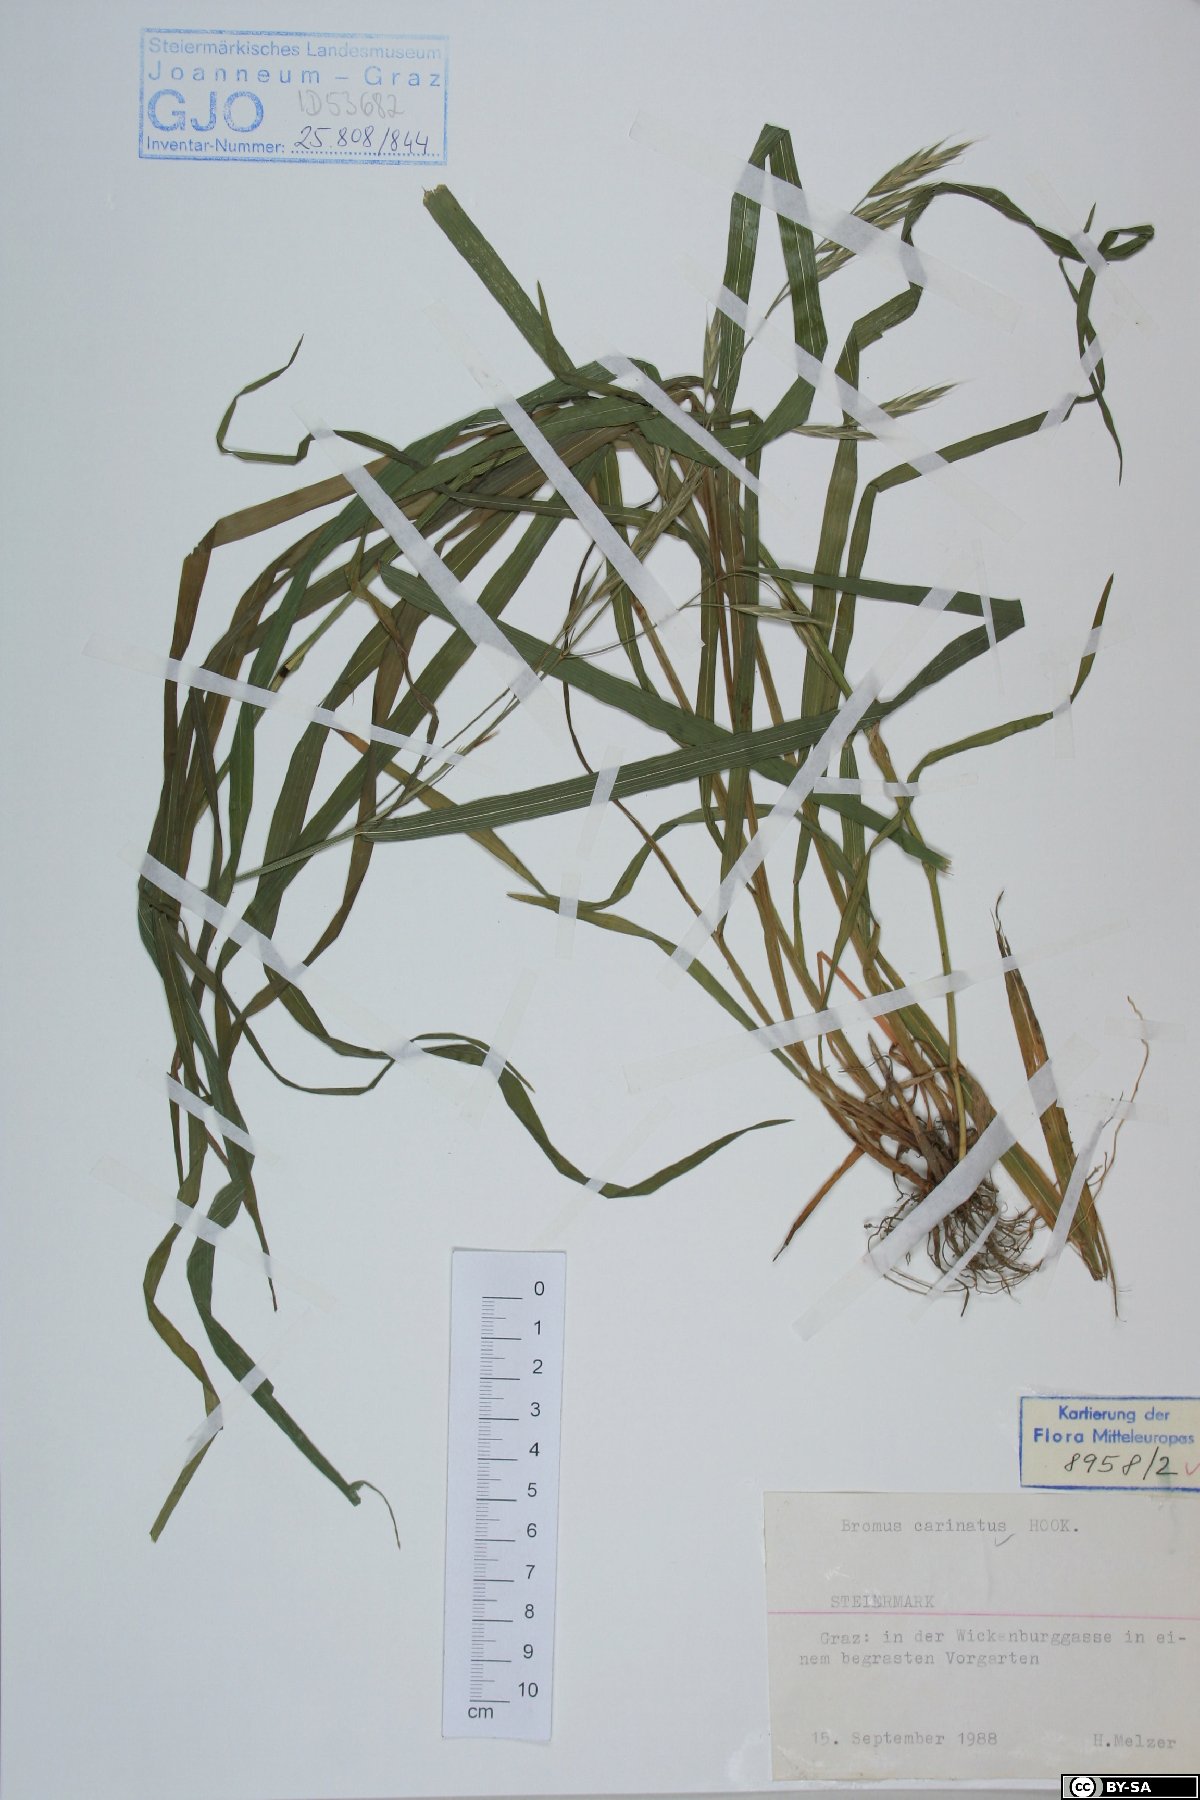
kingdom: Plantae
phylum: Tracheophyta
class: Liliopsida
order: Poales
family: Poaceae
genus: Bromus
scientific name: Bromus carinatus
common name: Mountain brome
